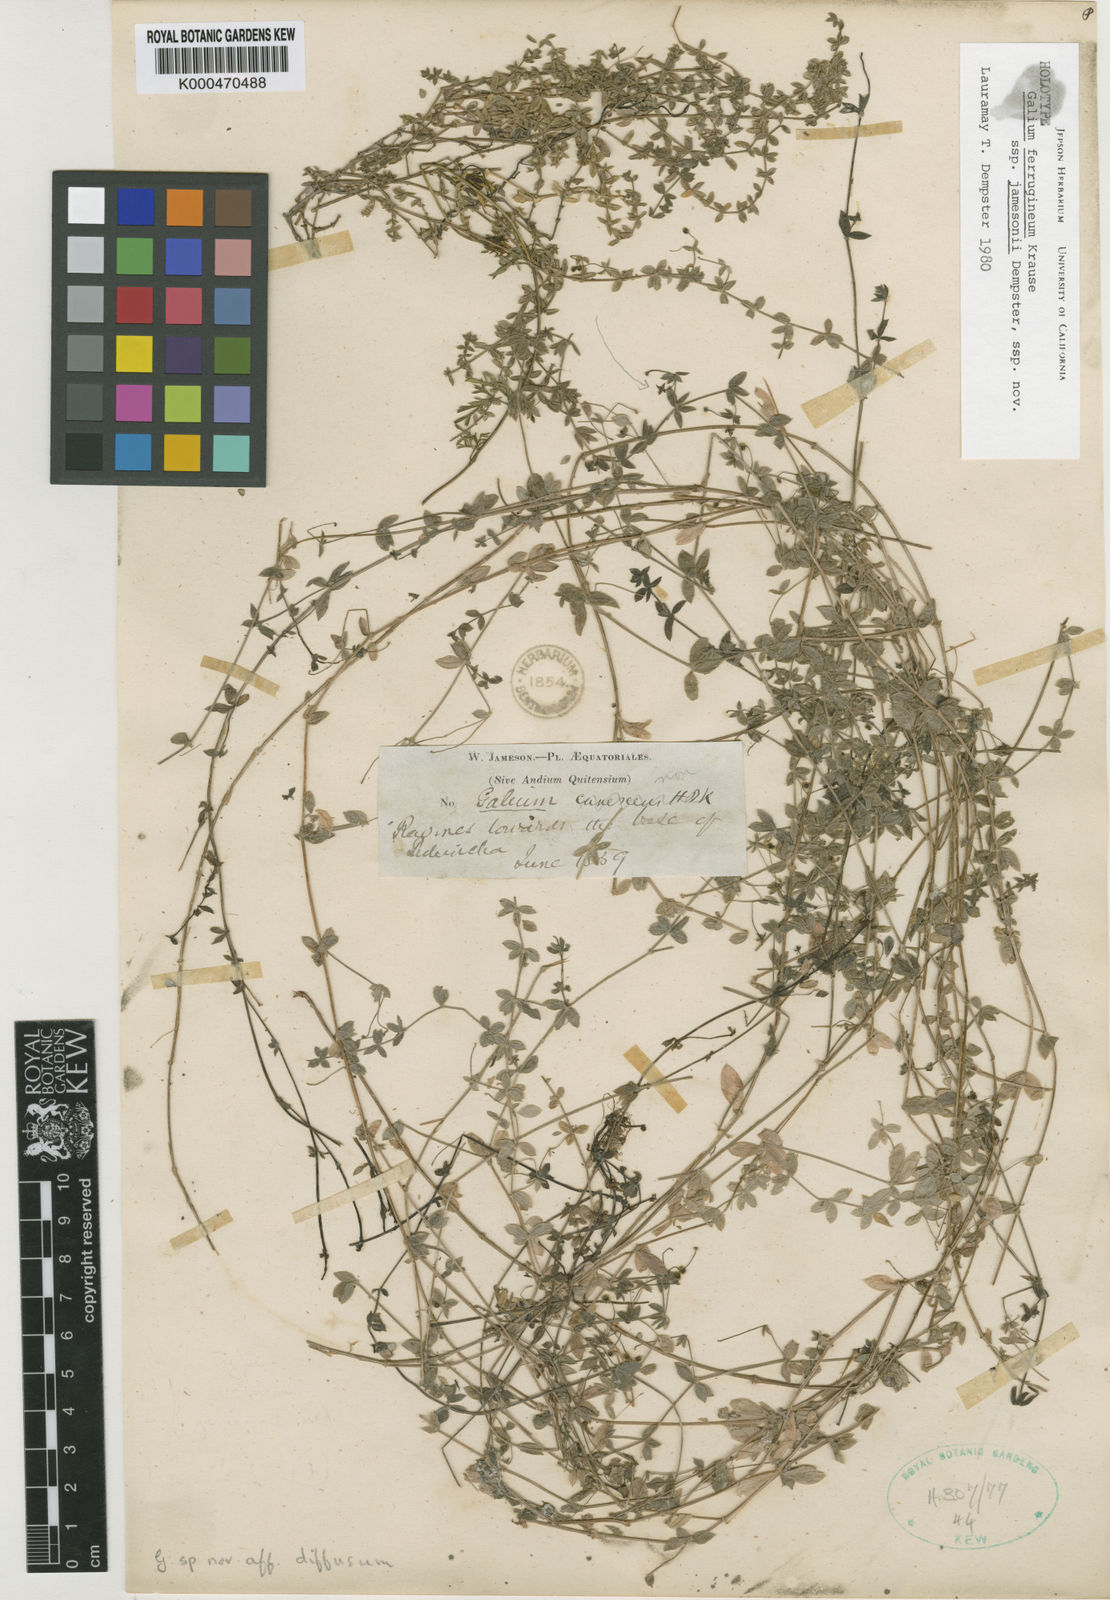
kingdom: Plantae
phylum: Tracheophyta
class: Magnoliopsida
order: Gentianales
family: Rubiaceae
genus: Galium
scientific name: Galium ferrugineum
